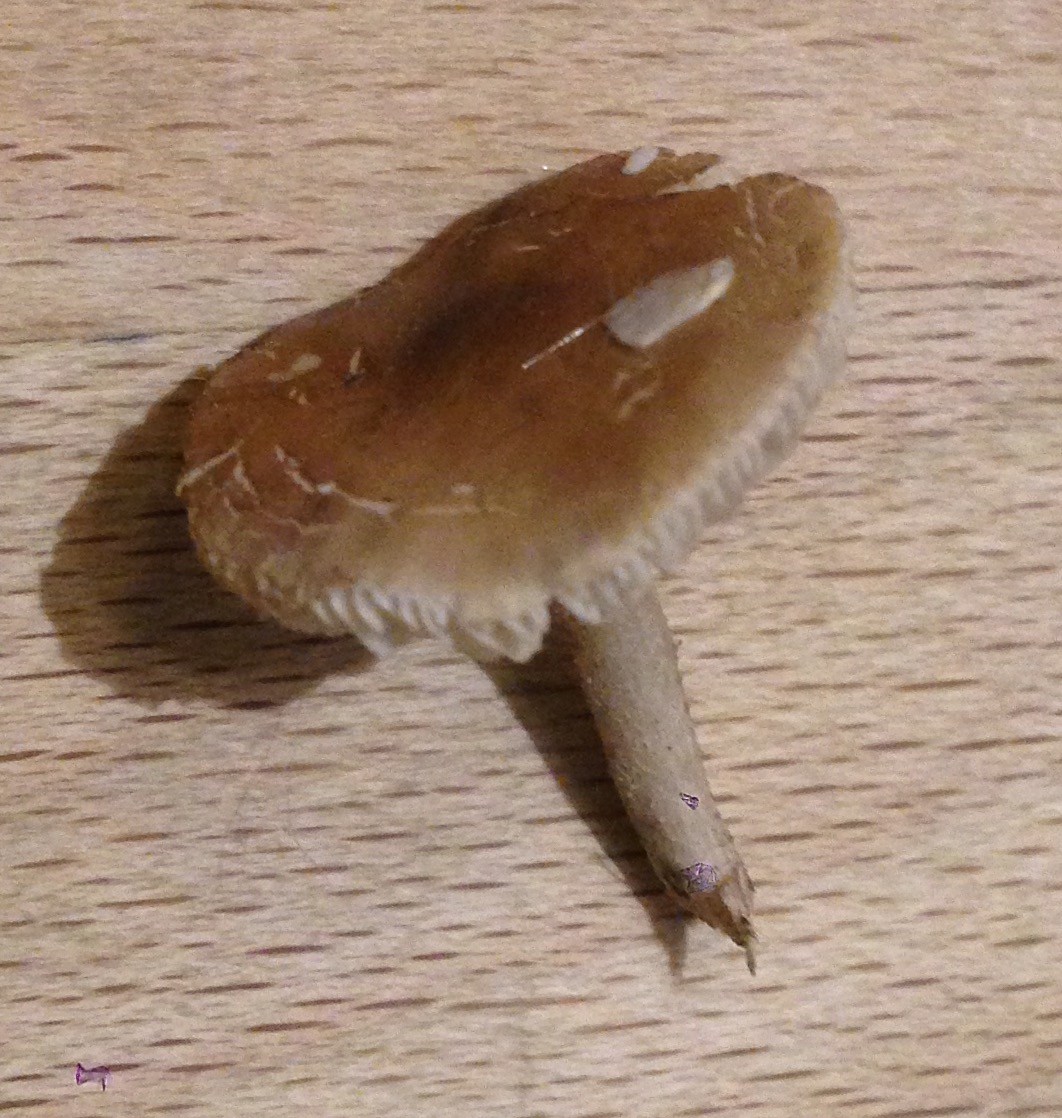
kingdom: Fungi
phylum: Basidiomycota
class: Agaricomycetes
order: Agaricales
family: Tricholomataceae
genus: Dermoloma
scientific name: Dermoloma cuneifolium
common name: eng-nonnehat
